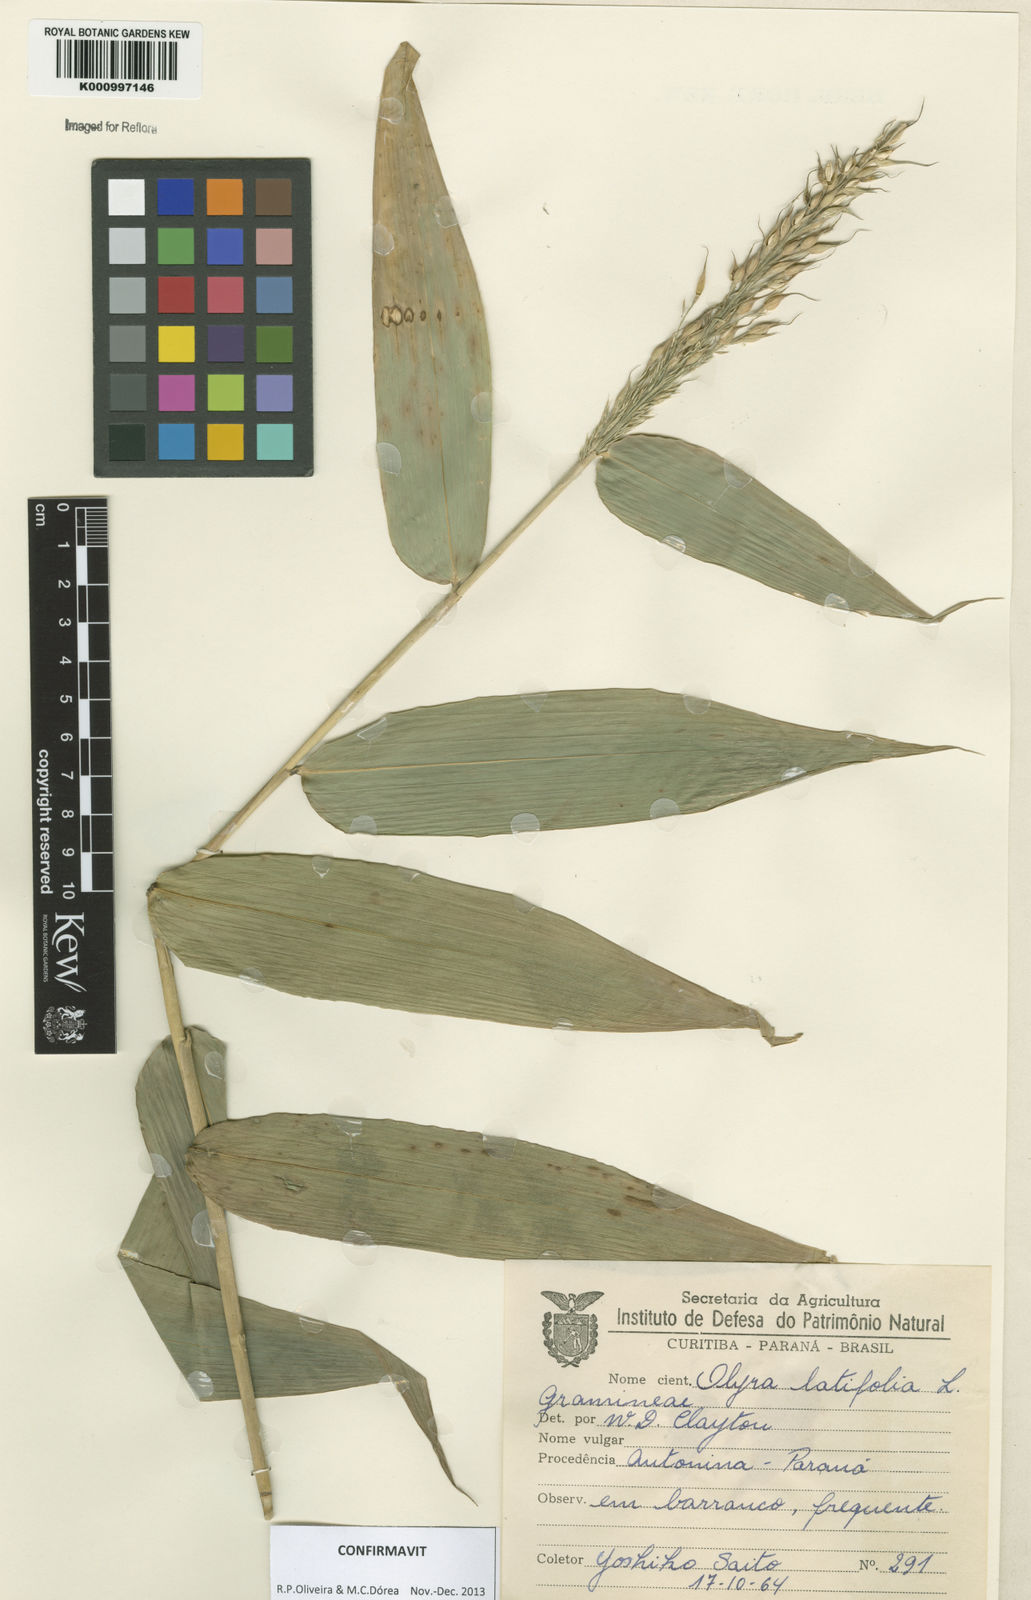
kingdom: Plantae
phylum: Tracheophyta
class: Liliopsida
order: Poales
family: Poaceae
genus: Olyra
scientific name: Olyra latifolia
